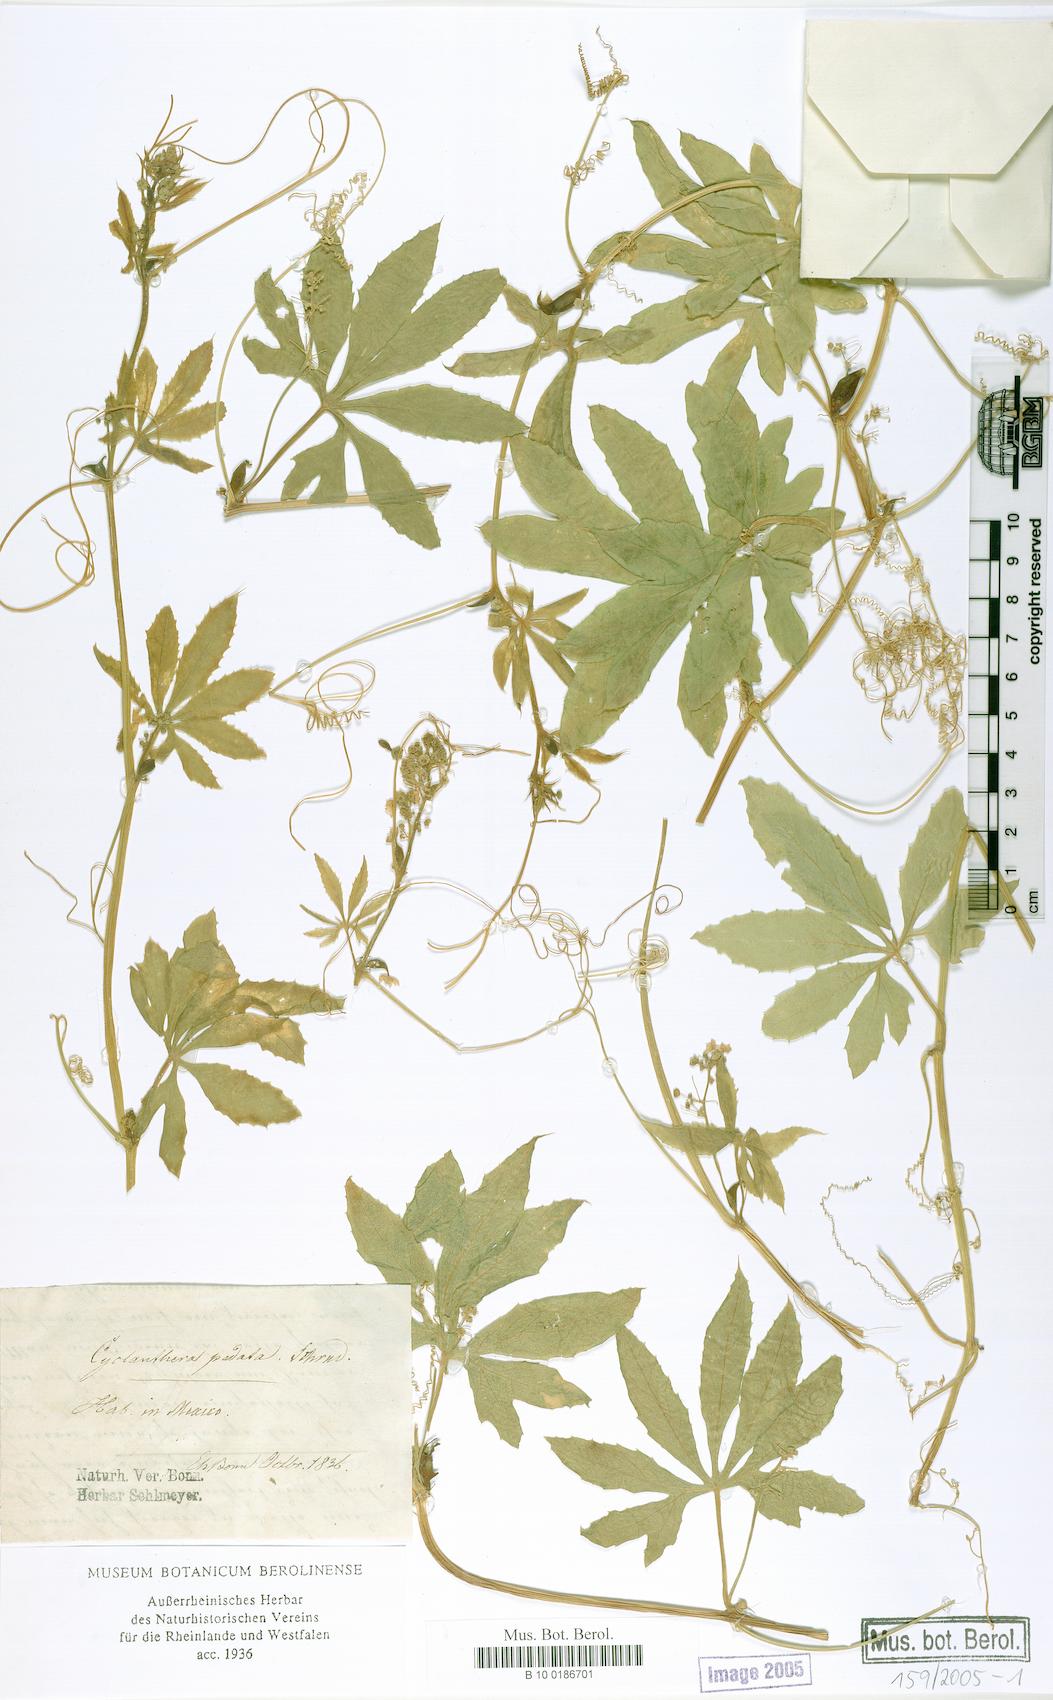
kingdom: Plantae
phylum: Tracheophyta
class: Magnoliopsida
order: Cucurbitales
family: Cucurbitaceae
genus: Cyclanthera
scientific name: Cyclanthera pedata
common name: Slipper goard
